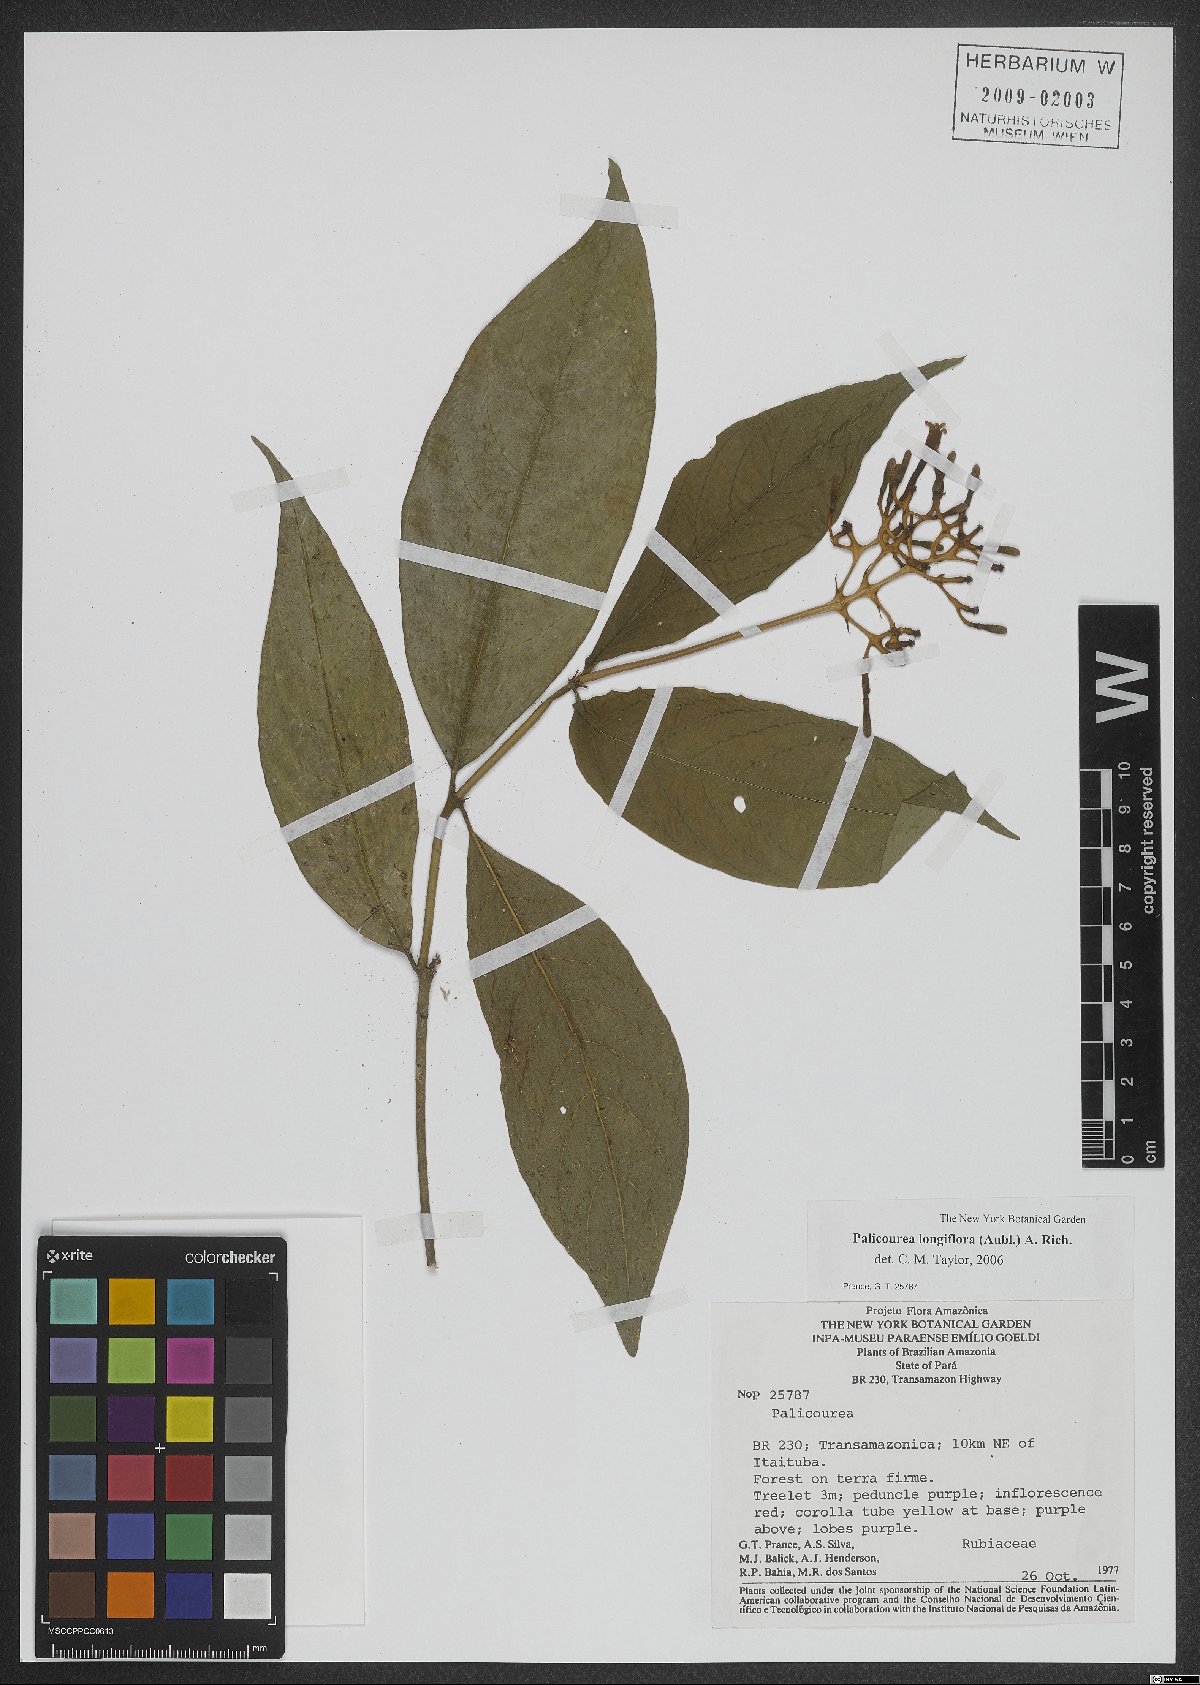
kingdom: Plantae
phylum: Tracheophyta
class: Magnoliopsida
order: Gentianales
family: Rubiaceae
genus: Palicourea
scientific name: Palicourea longiflora
